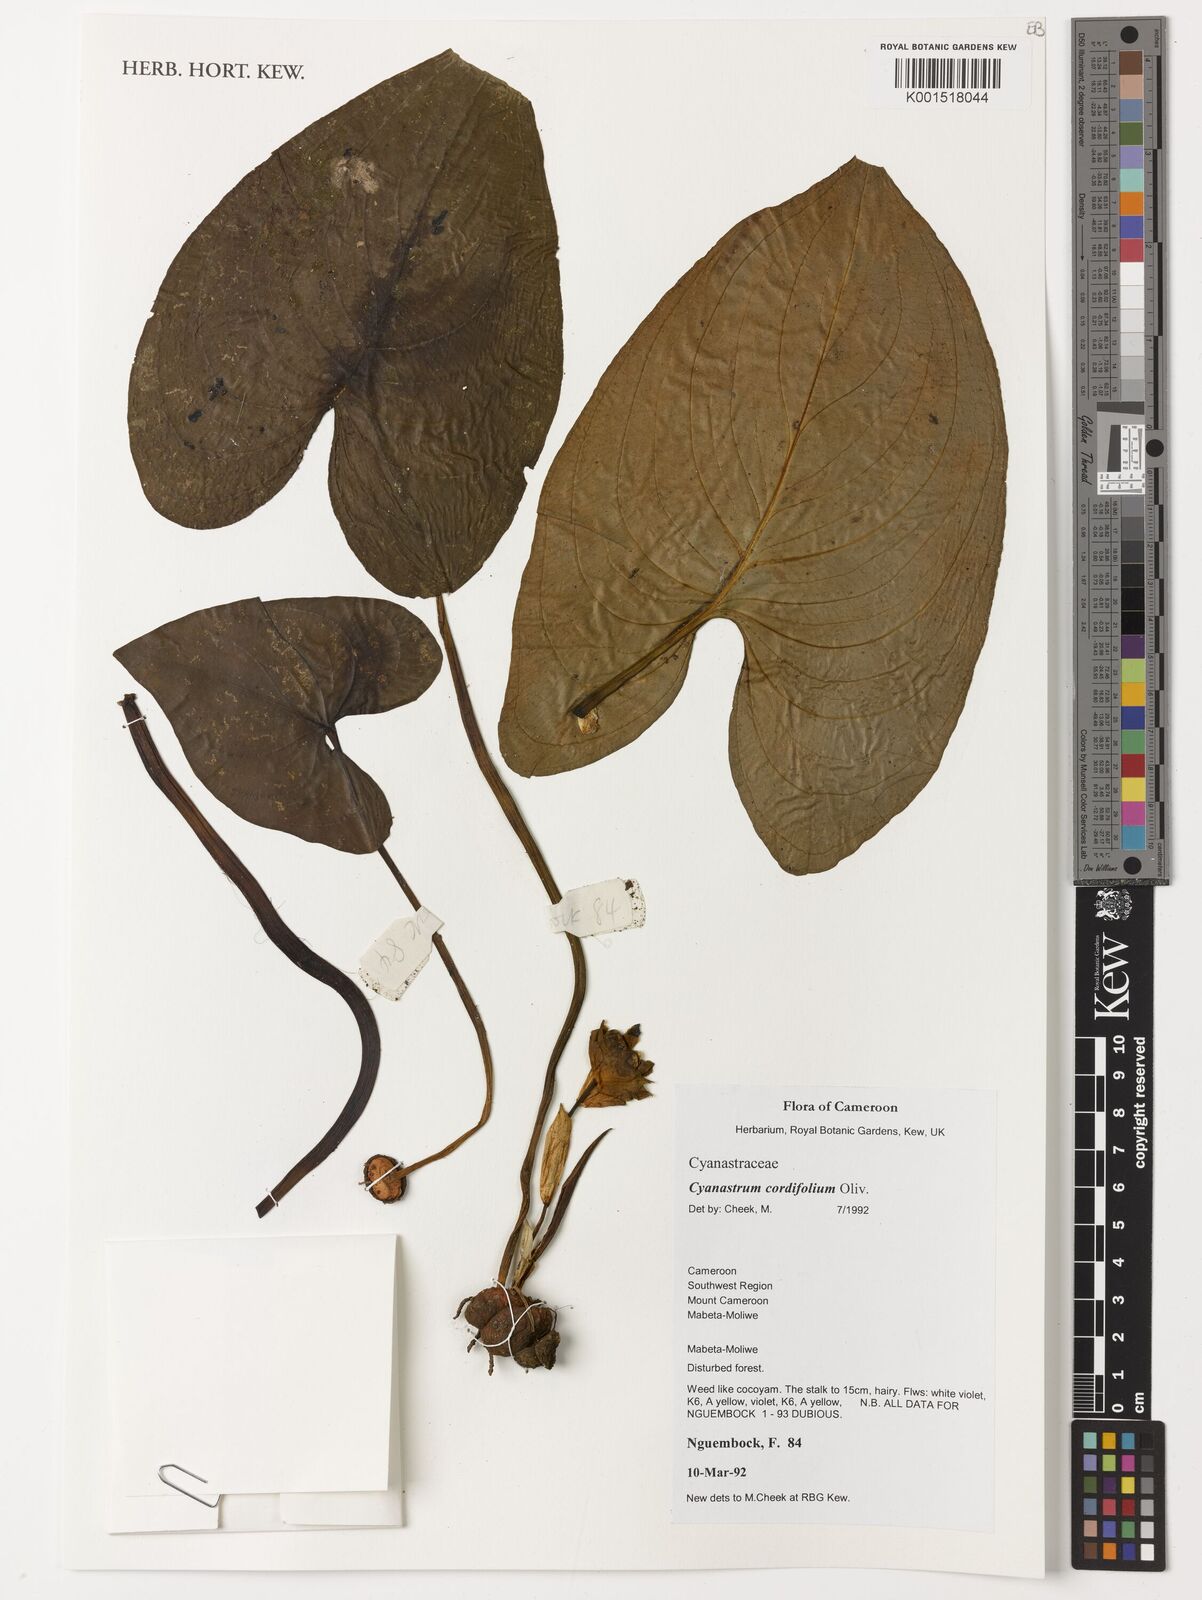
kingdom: Plantae
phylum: Tracheophyta
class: Liliopsida
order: Asparagales
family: Tecophilaeaceae
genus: Cyanastrum
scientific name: Cyanastrum cordifolium
